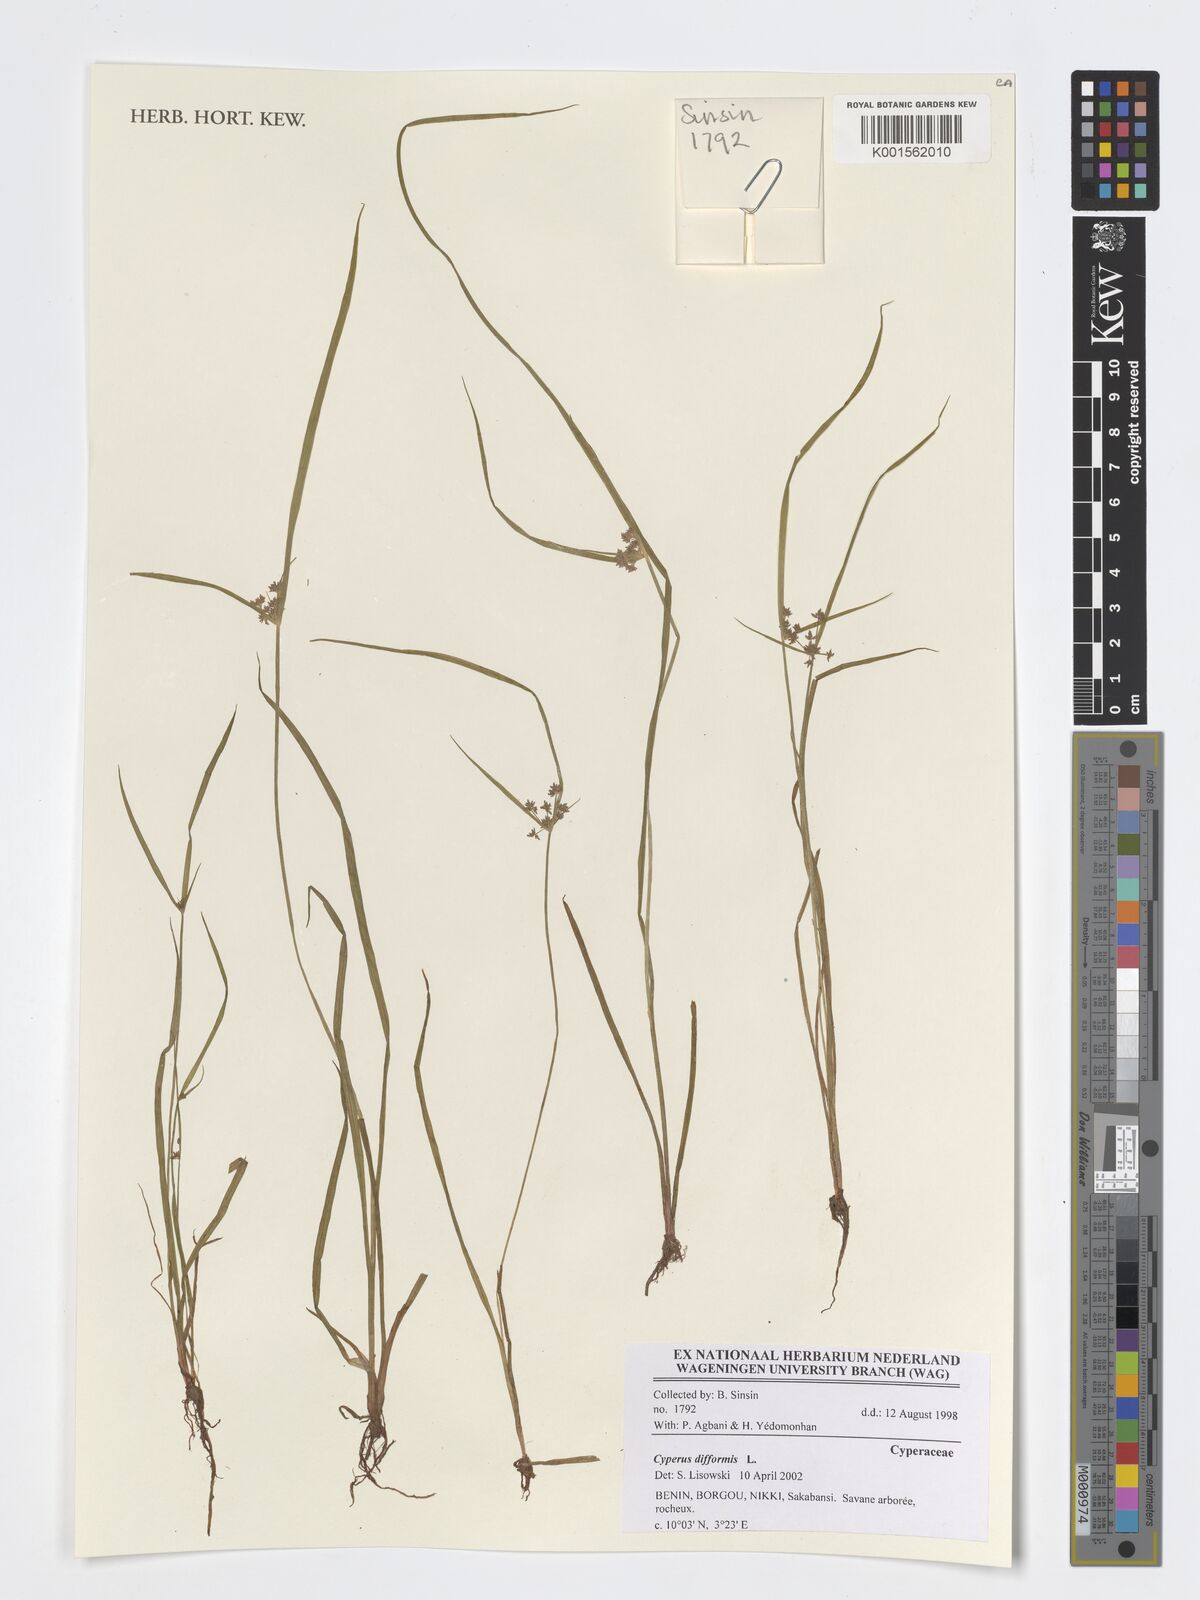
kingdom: Plantae
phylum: Tracheophyta
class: Liliopsida
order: Poales
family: Cyperaceae
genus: Cyperus
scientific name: Cyperus difformis
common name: Variable flatsedge
